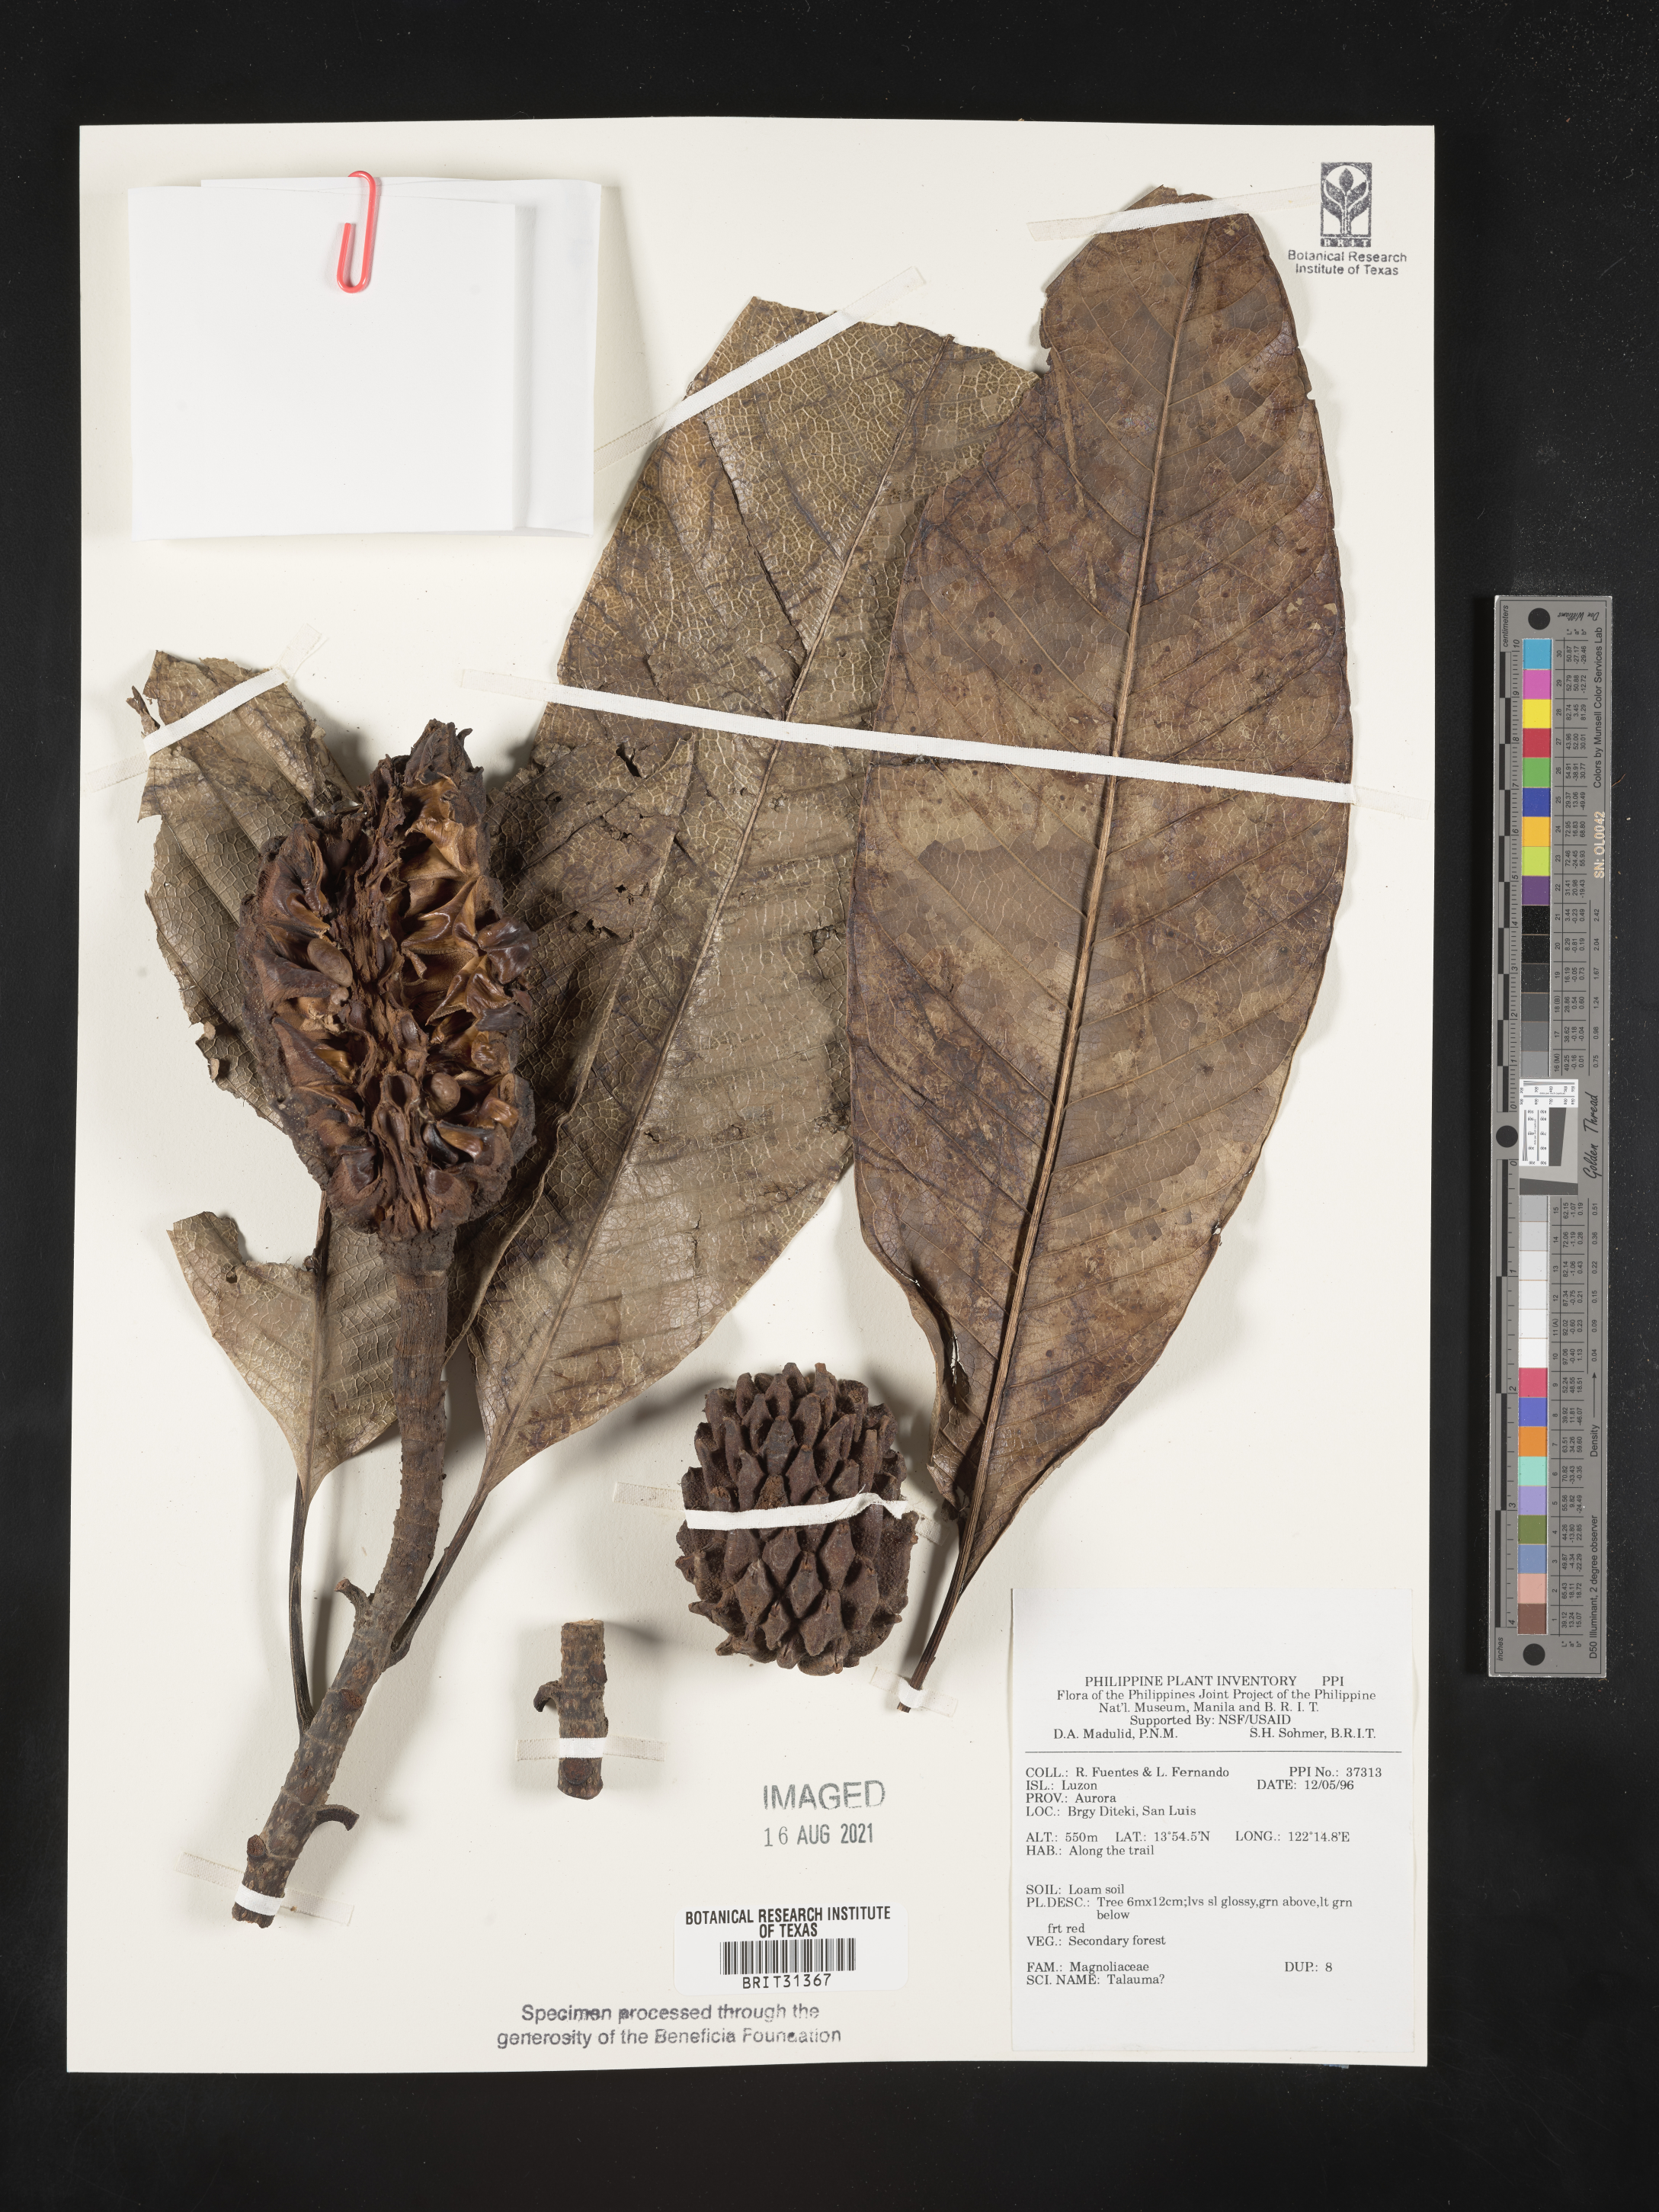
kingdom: Plantae
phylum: Tracheophyta
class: Magnoliopsida
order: Magnoliales
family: Magnoliaceae
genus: Magnolia
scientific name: Magnolia Talauma spec
